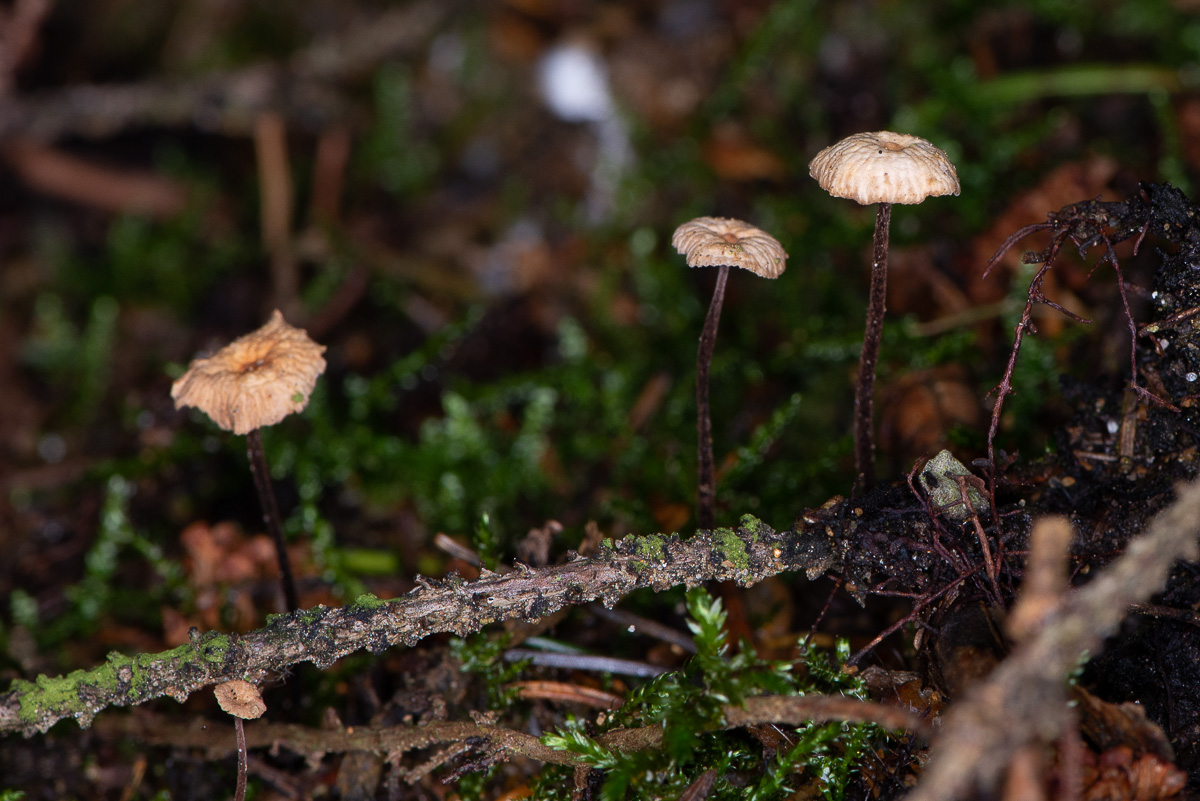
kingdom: Fungi
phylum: Basidiomycota
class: Agaricomycetes
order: Agaricales
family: Omphalotaceae
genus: Paragymnopus
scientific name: Paragymnopus perforans
